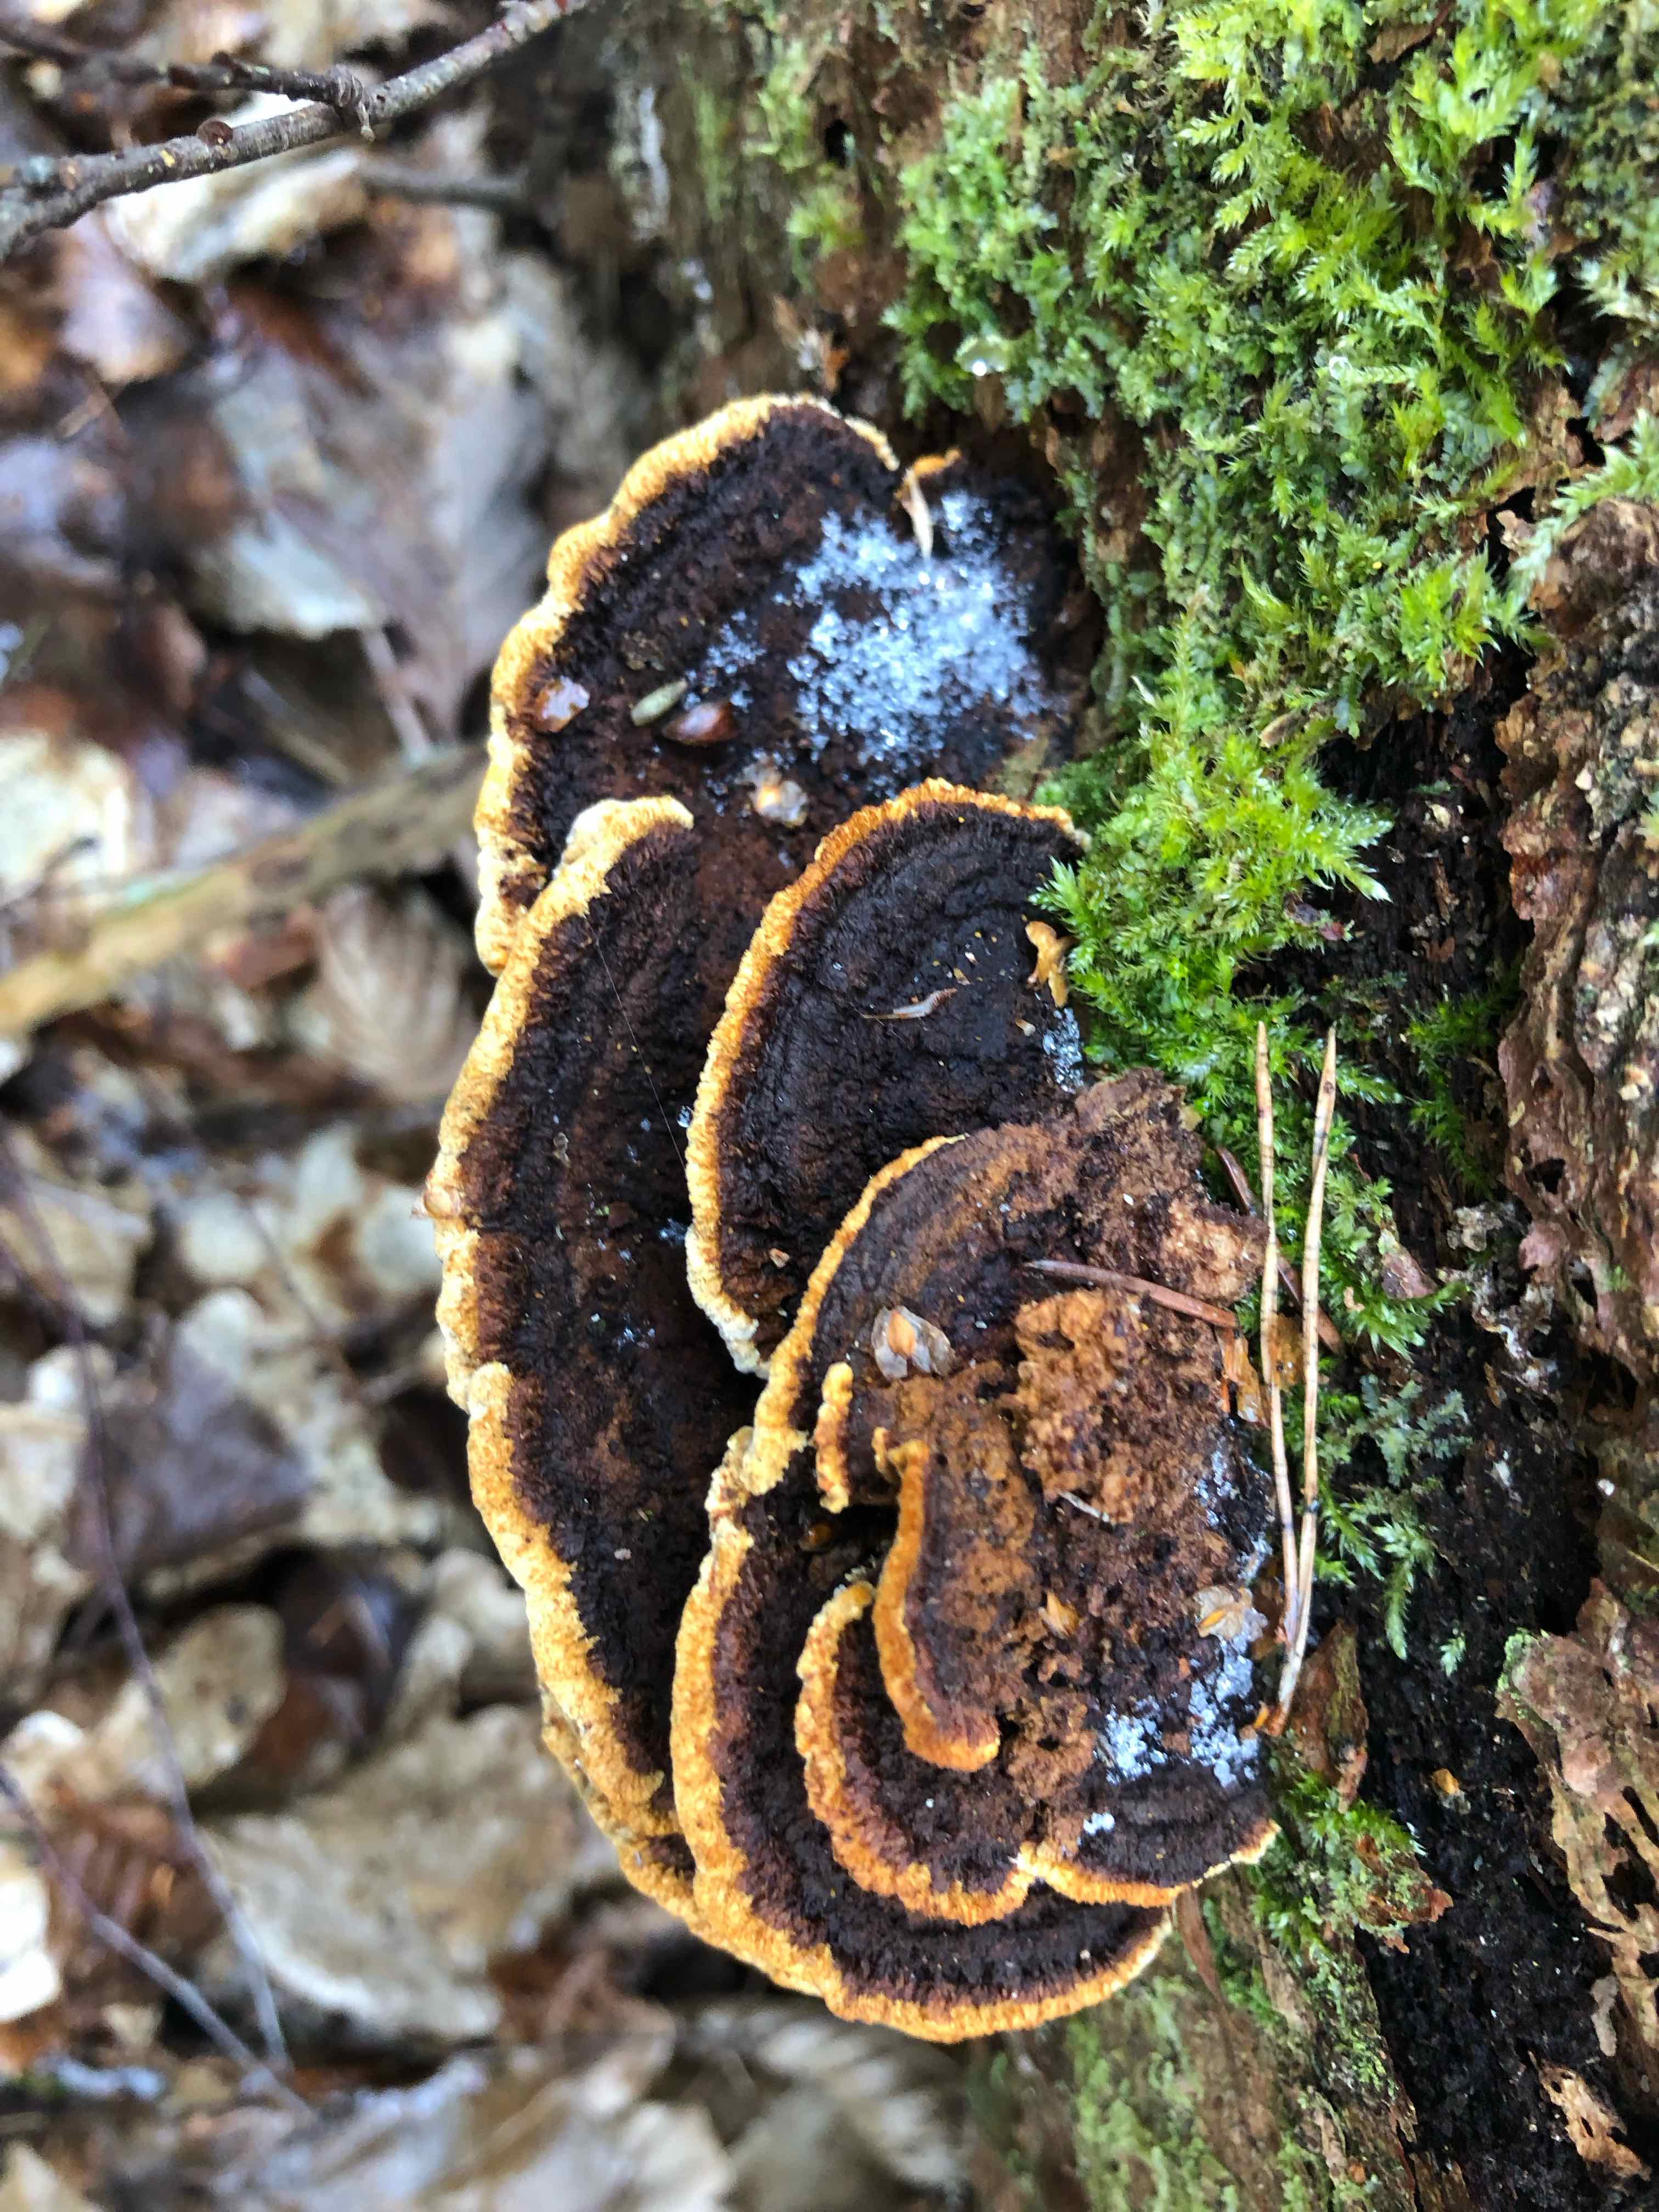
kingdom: Fungi
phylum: Basidiomycota
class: Agaricomycetes
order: Gloeophyllales
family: Gloeophyllaceae
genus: Gloeophyllum
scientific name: Gloeophyllum sepiarium
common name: fyrre-korkhat
